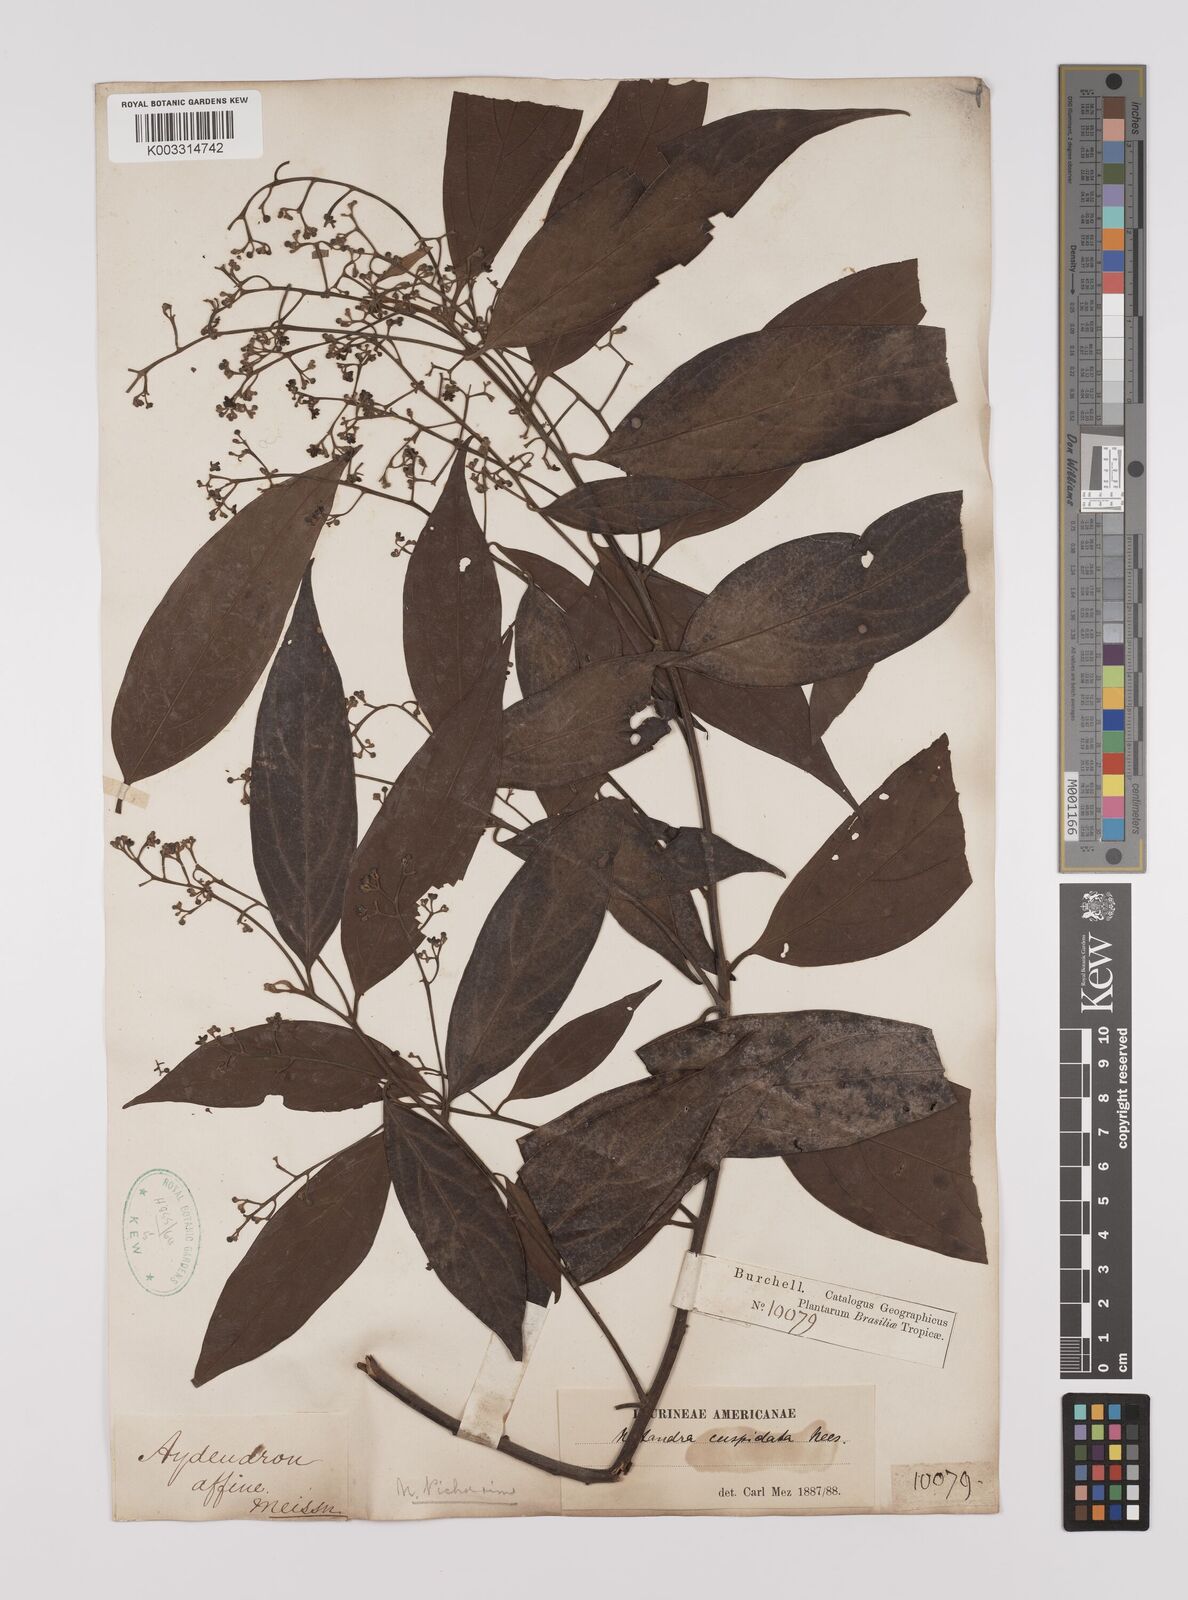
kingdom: Plantae
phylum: Tracheophyta
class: Magnoliopsida
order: Laurales
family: Lauraceae
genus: Nectandra
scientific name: Nectandra cuspidata
